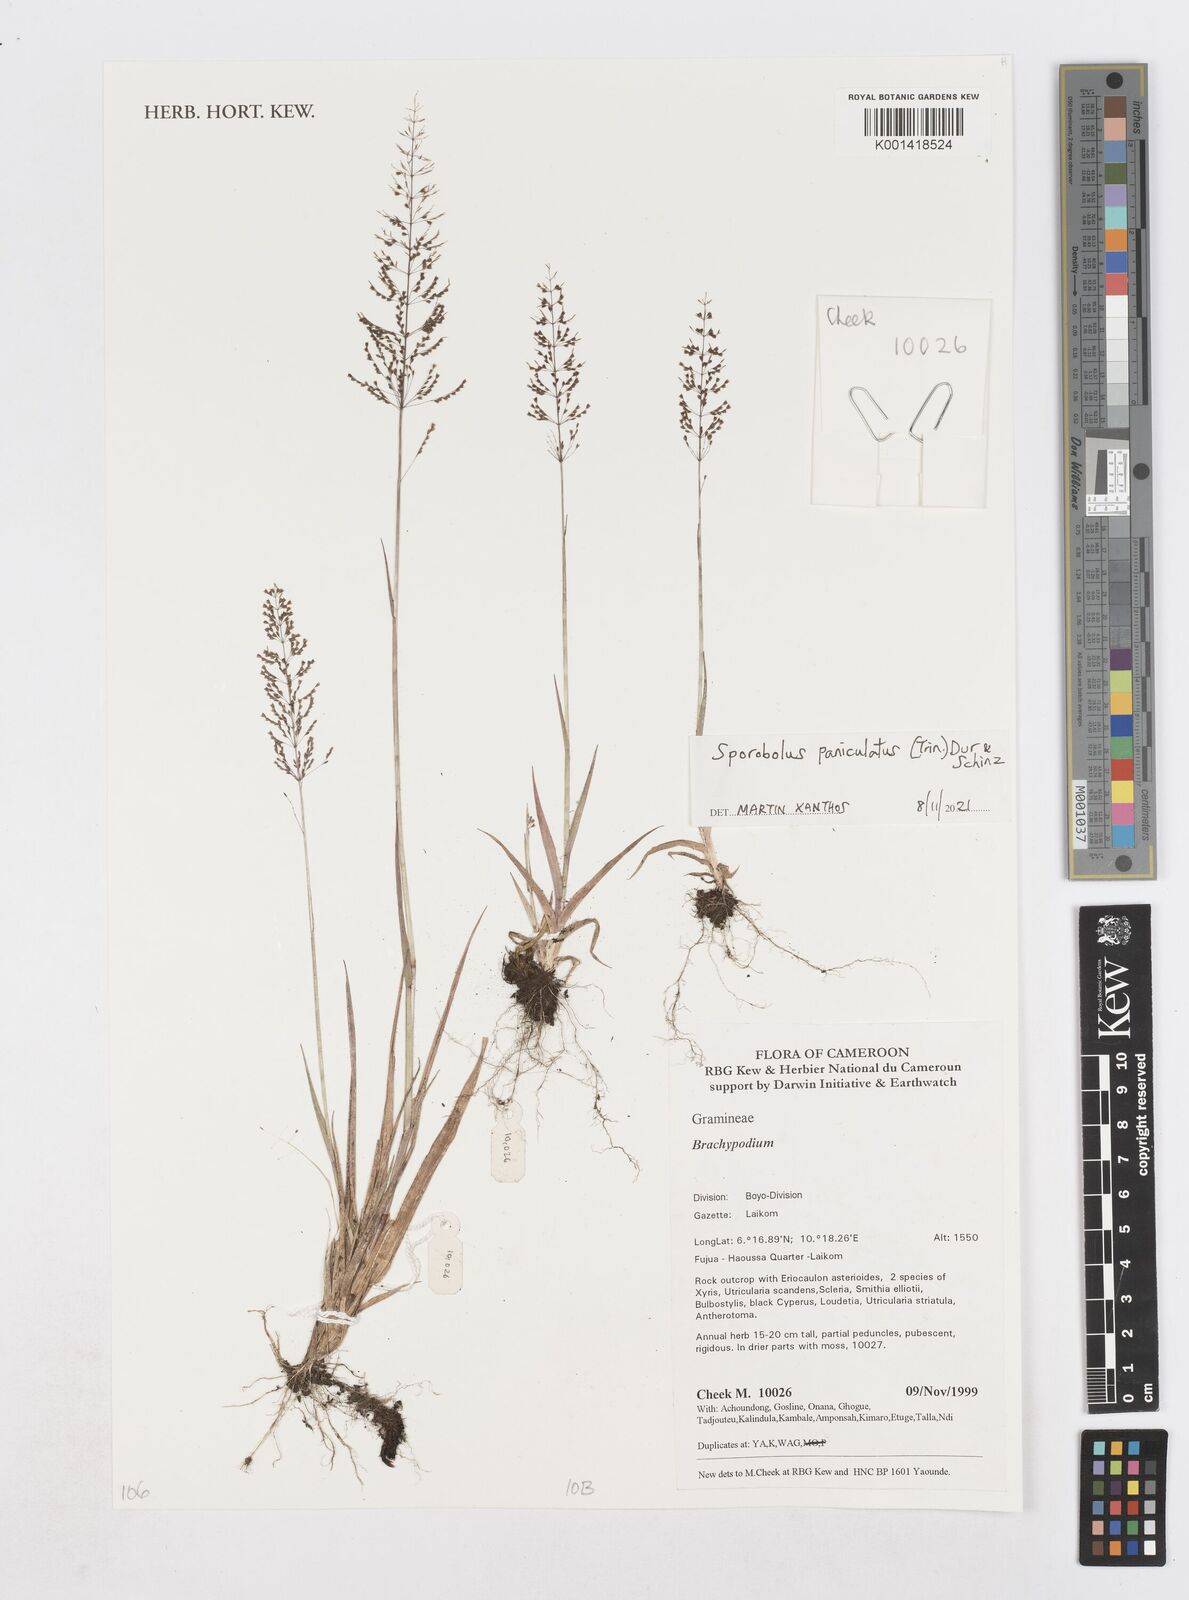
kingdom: Plantae
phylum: Tracheophyta
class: Liliopsida
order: Poales
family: Poaceae
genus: Sporobolus
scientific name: Sporobolus paniculatus
